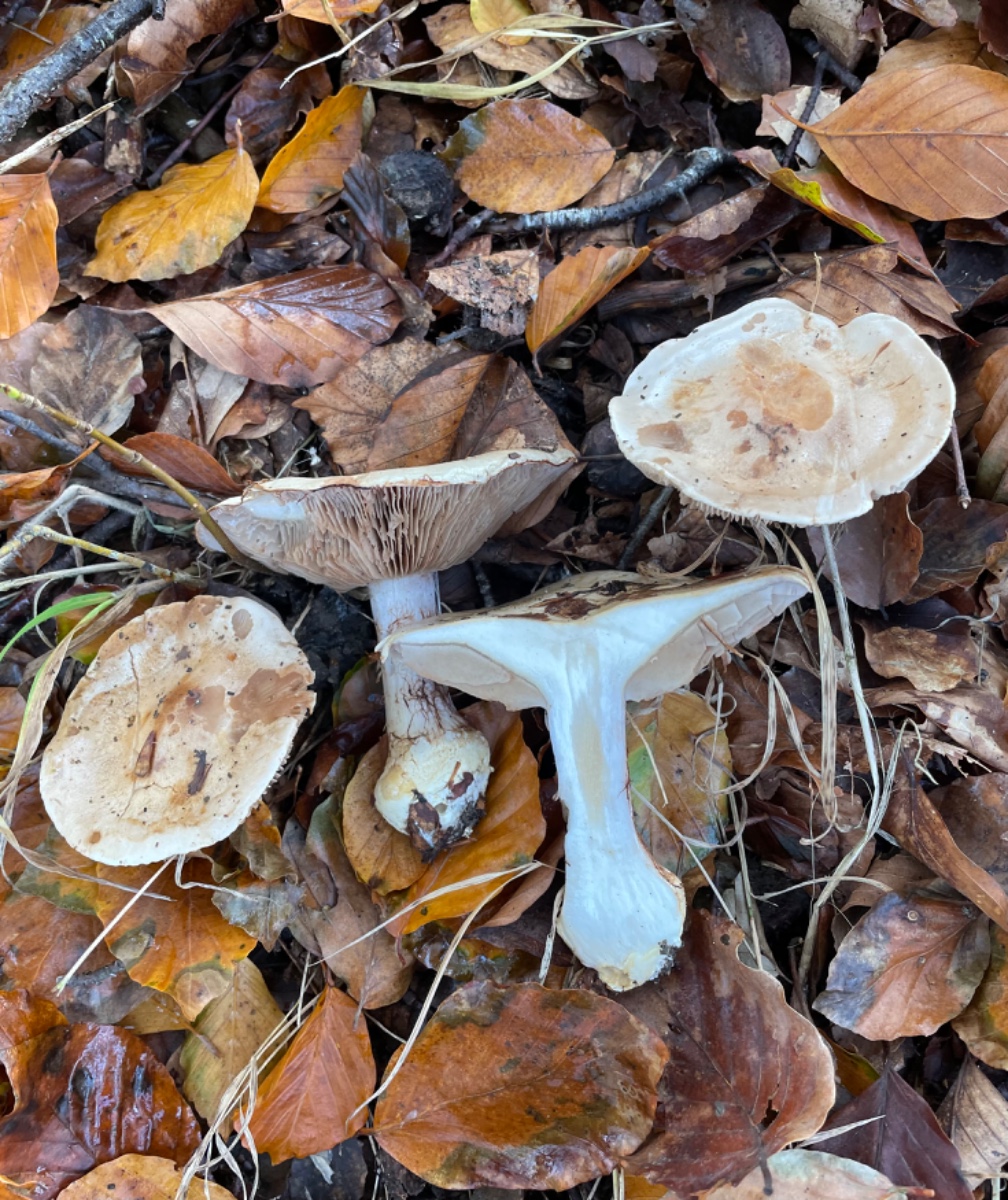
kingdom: Fungi
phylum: Basidiomycota
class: Agaricomycetes
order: Agaricales
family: Cortinariaceae
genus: Cortinarius
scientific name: Cortinarius anserinus
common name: bøge-slørhat
